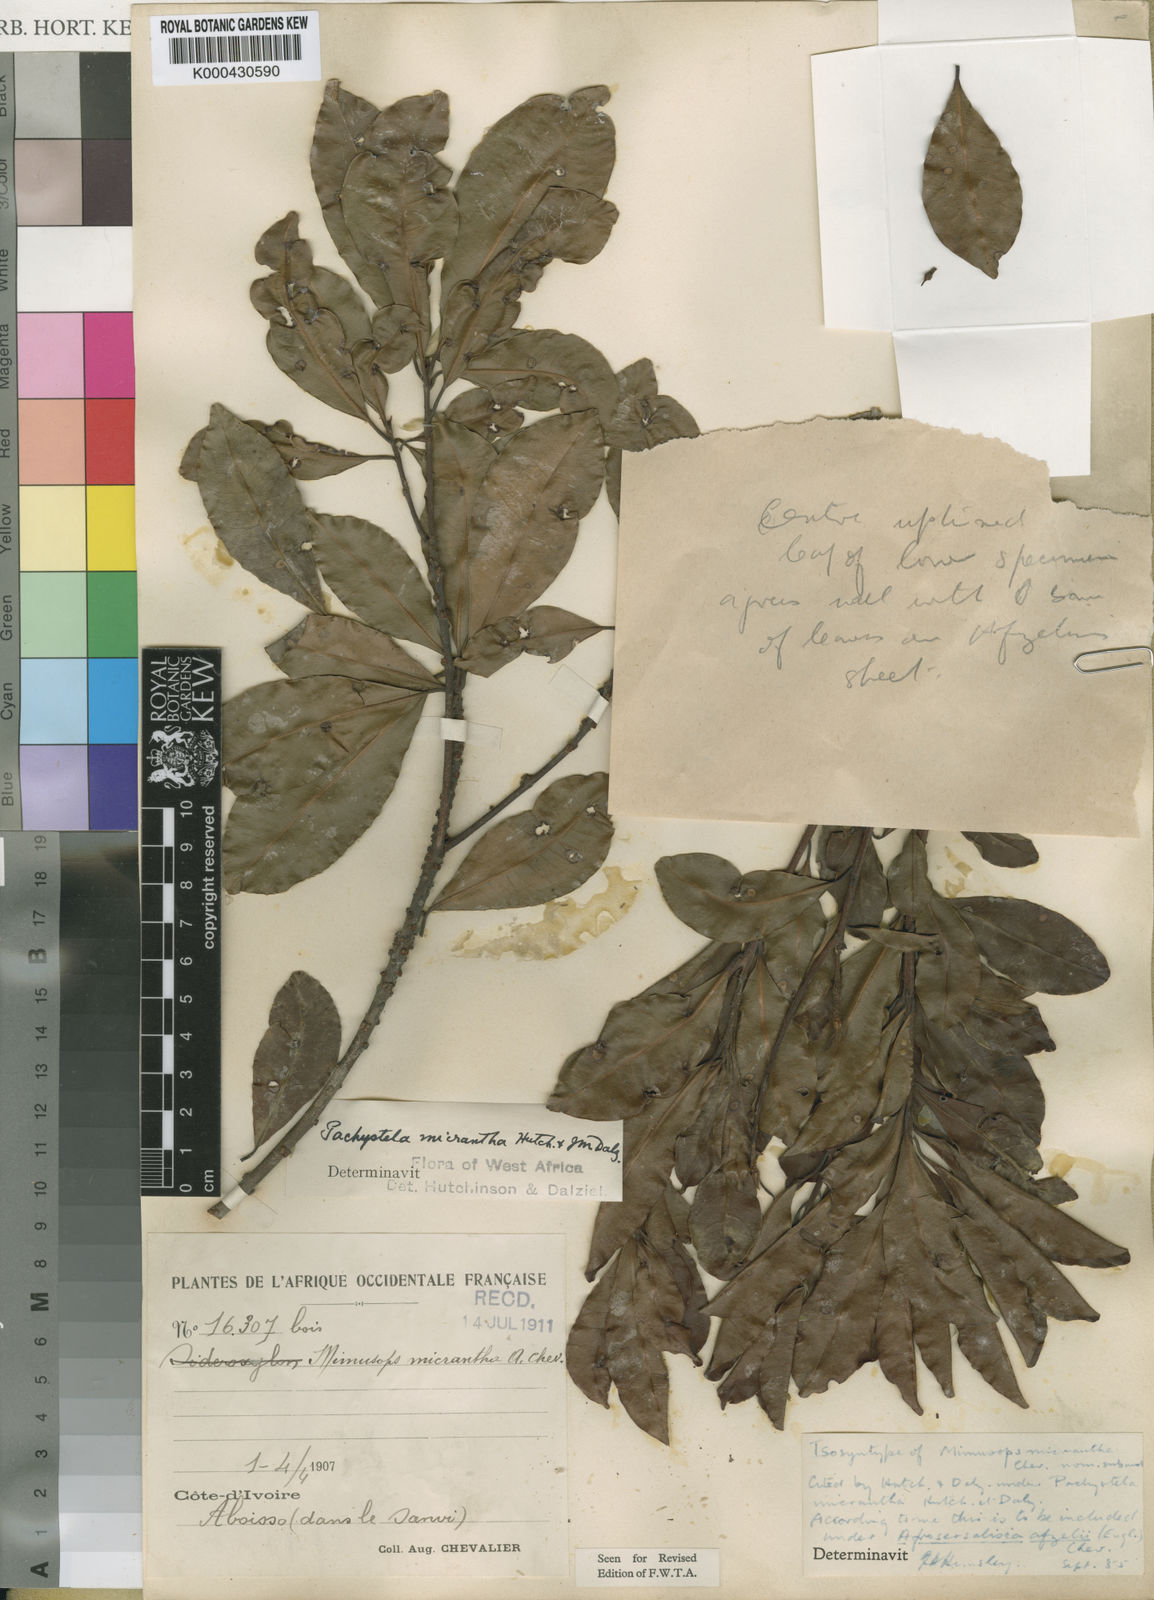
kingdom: Plantae
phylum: Tracheophyta
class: Magnoliopsida
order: Ericales
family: Sapotaceae
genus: Synsepalum
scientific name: Synsepalum afzelii
